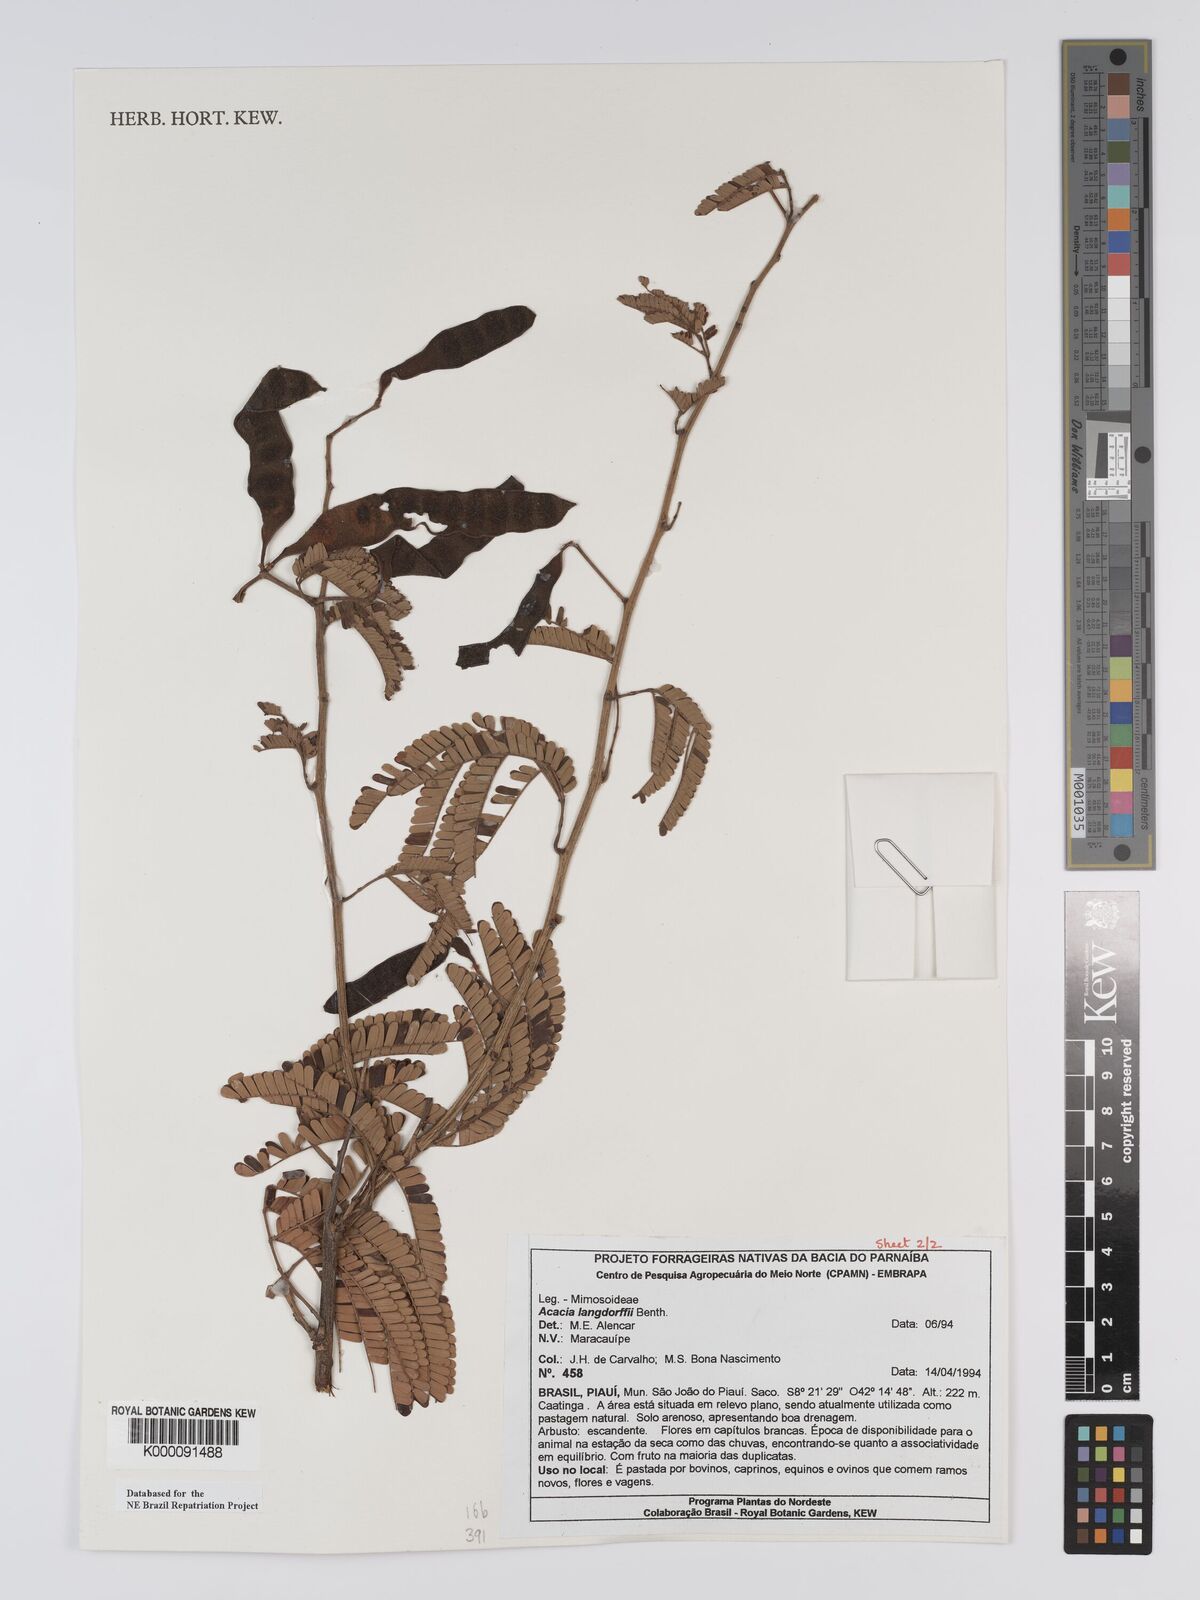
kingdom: Plantae
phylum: Tracheophyta
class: Magnoliopsida
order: Fabales
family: Fabaceae
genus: Senegalia
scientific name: Senegalia langsdorffii
